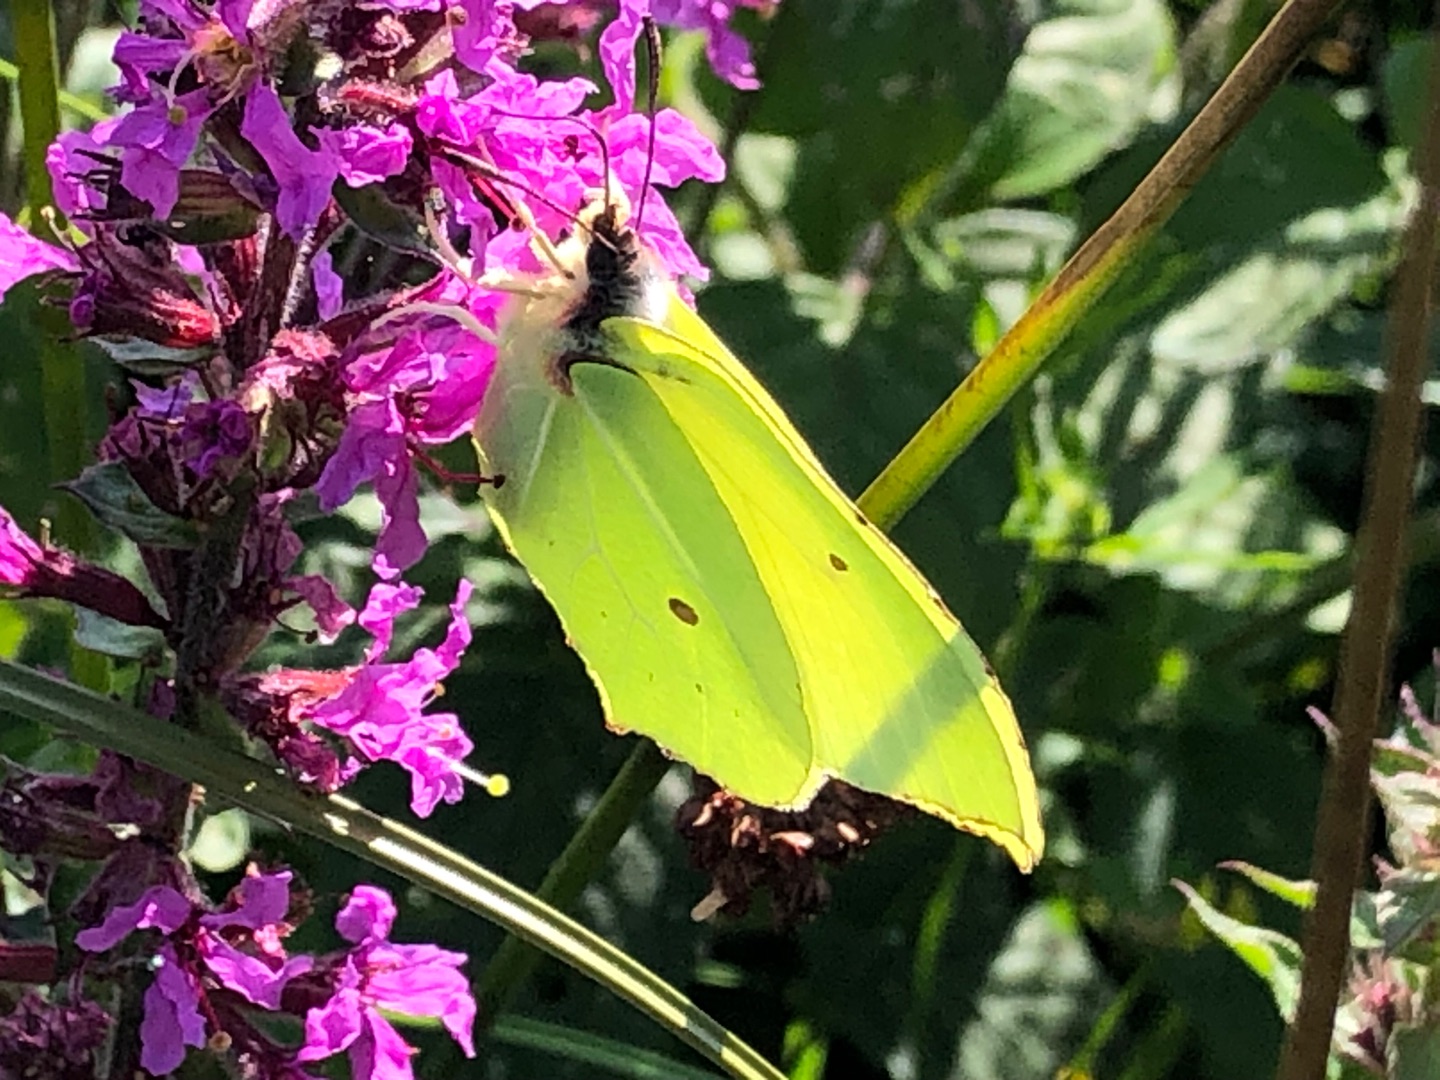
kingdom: Animalia
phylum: Arthropoda
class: Insecta
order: Lepidoptera
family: Pieridae
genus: Gonepteryx
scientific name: Gonepteryx rhamni
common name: Citronsommerfugl
